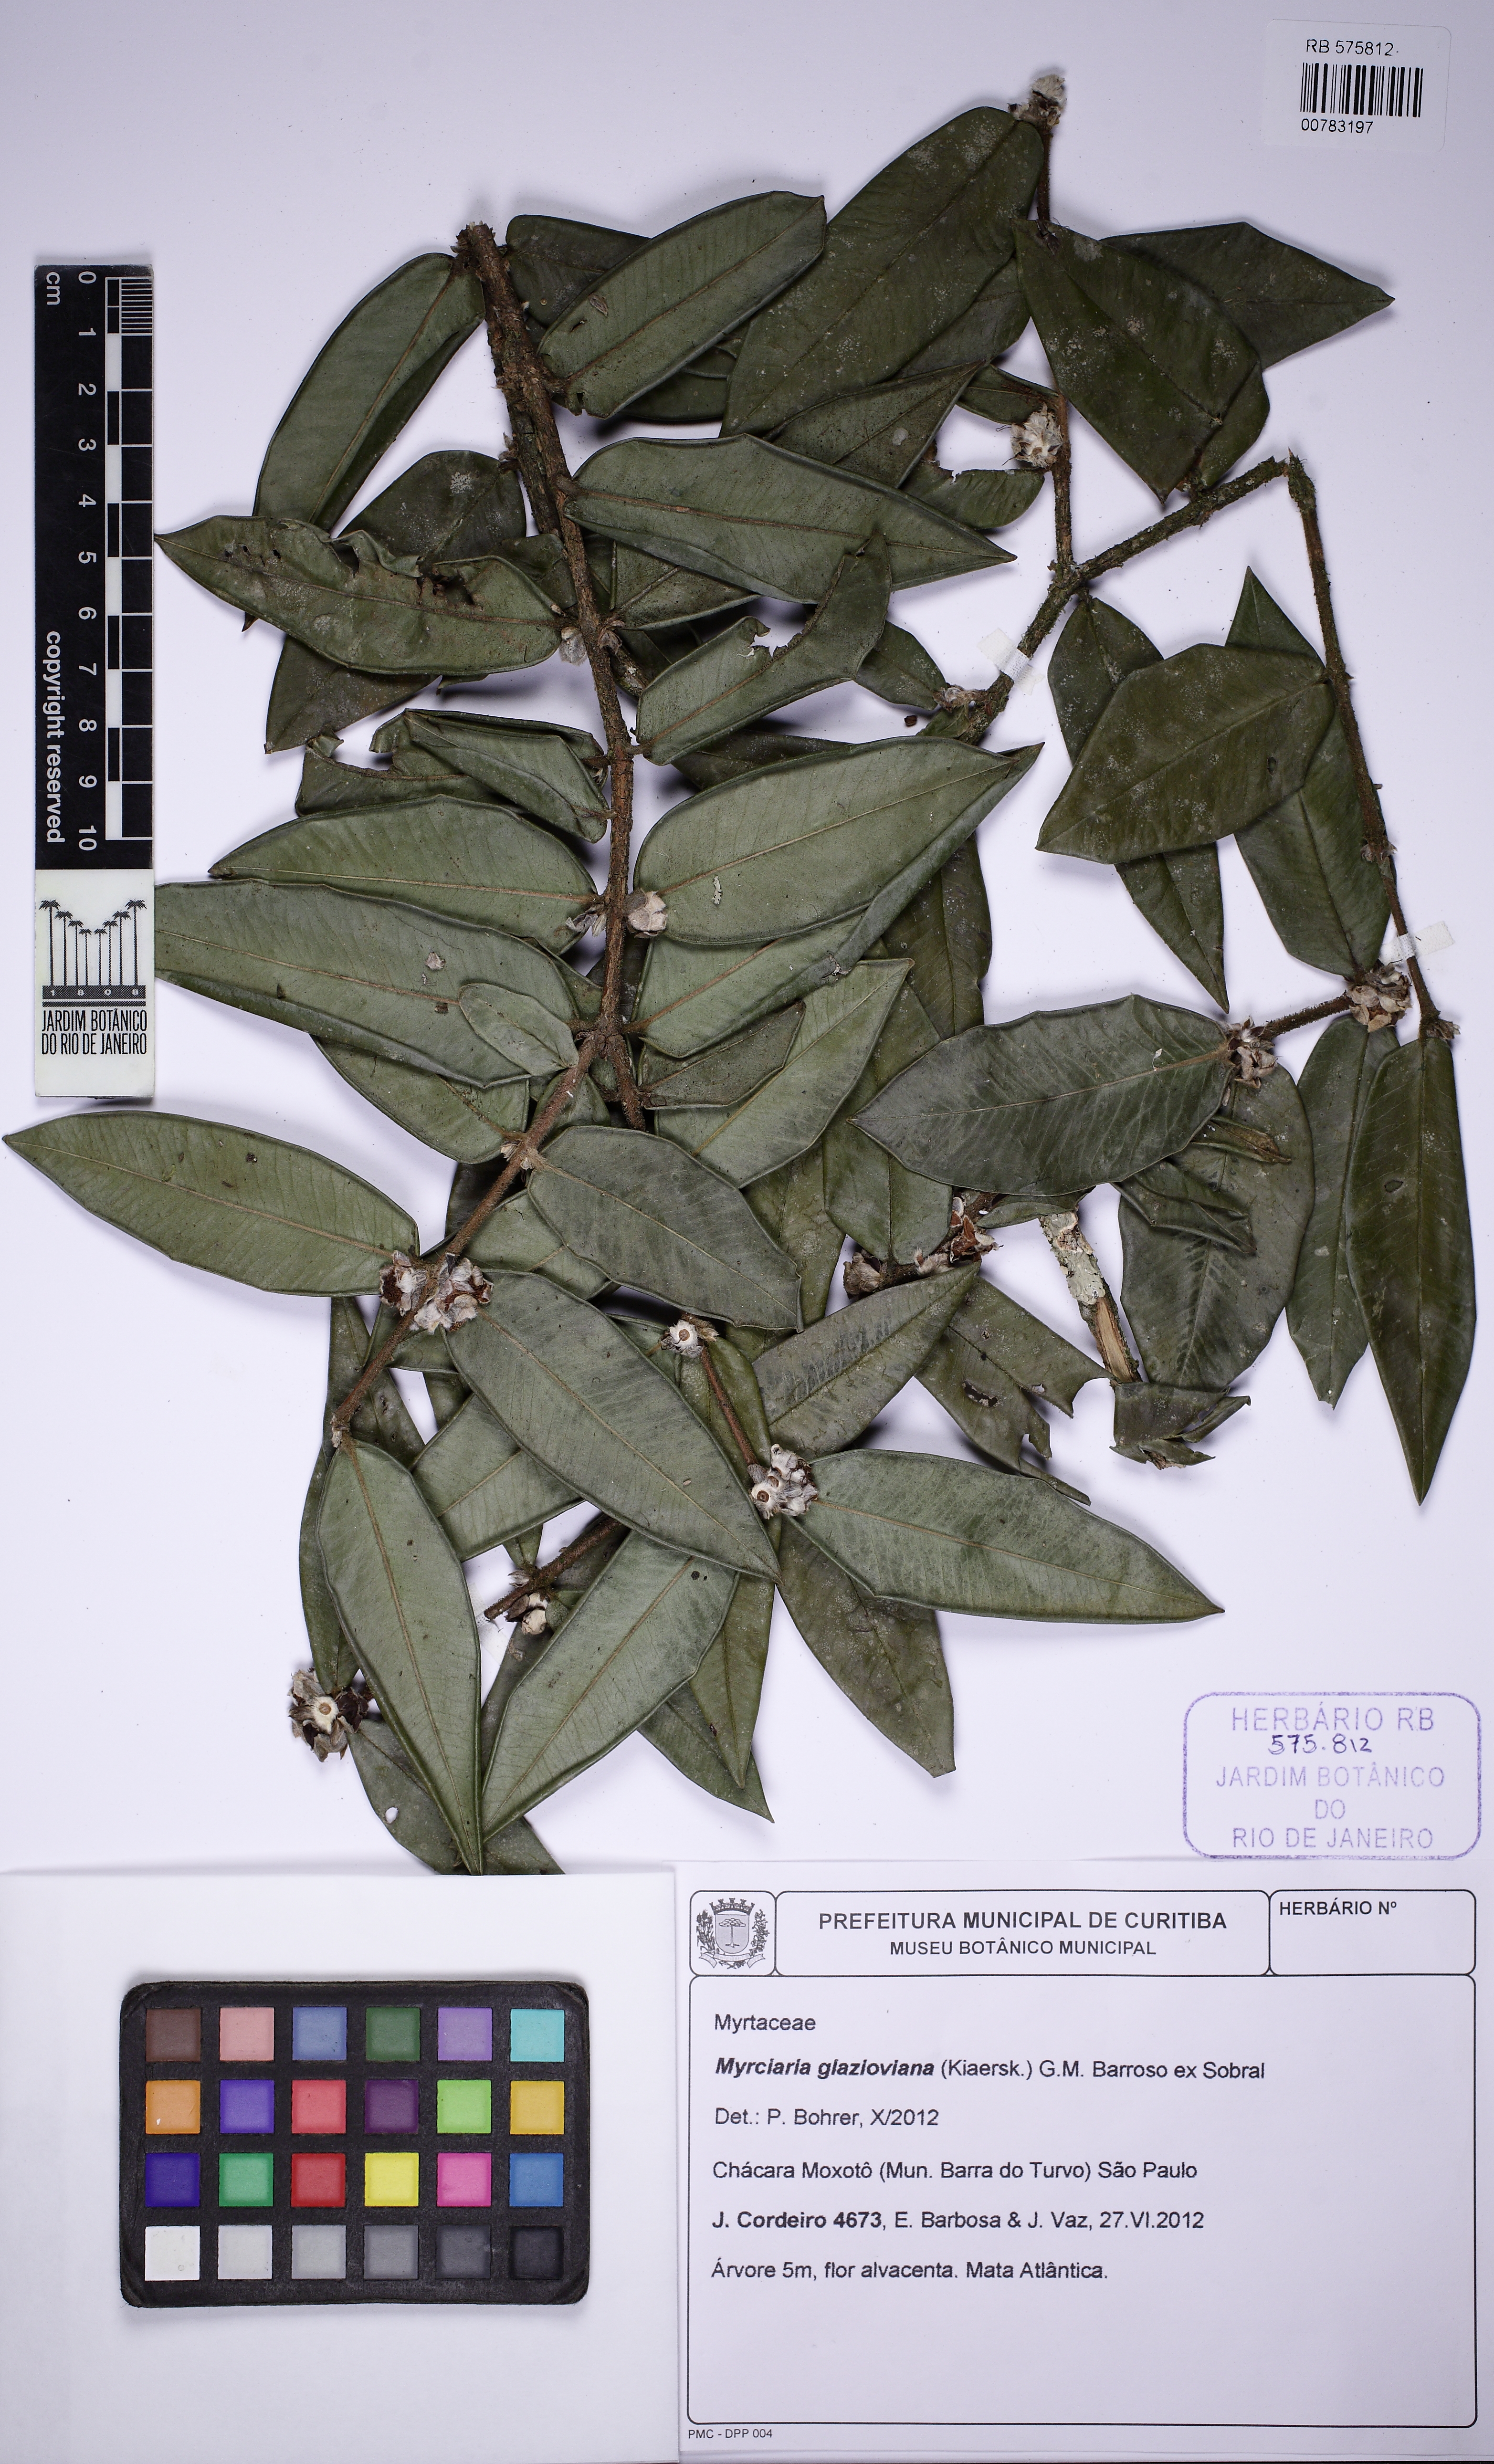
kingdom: Plantae
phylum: Tracheophyta
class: Magnoliopsida
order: Myrtales
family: Myrtaceae
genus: Myrciaria
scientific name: Myrciaria glazioviana
